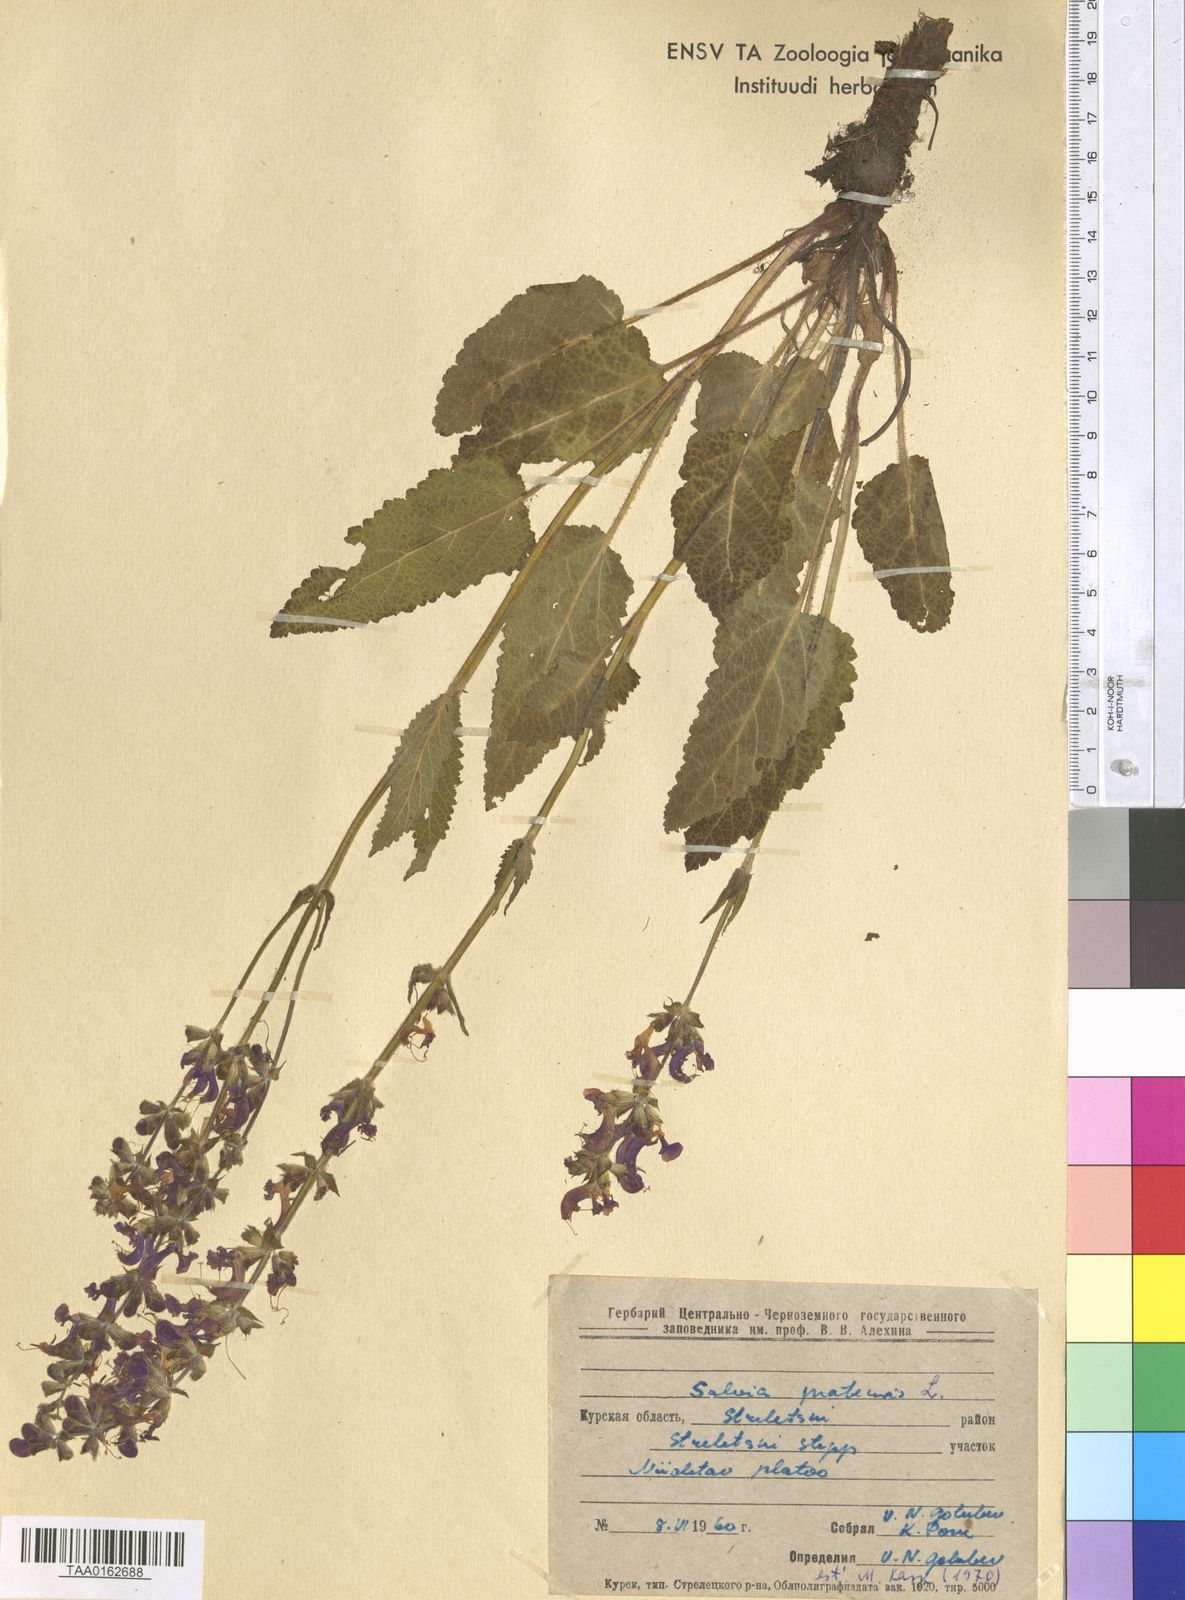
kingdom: Plantae
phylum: Tracheophyta
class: Magnoliopsida
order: Lamiales
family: Lamiaceae
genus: Salvia
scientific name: Salvia pratensis
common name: Meadow sage
